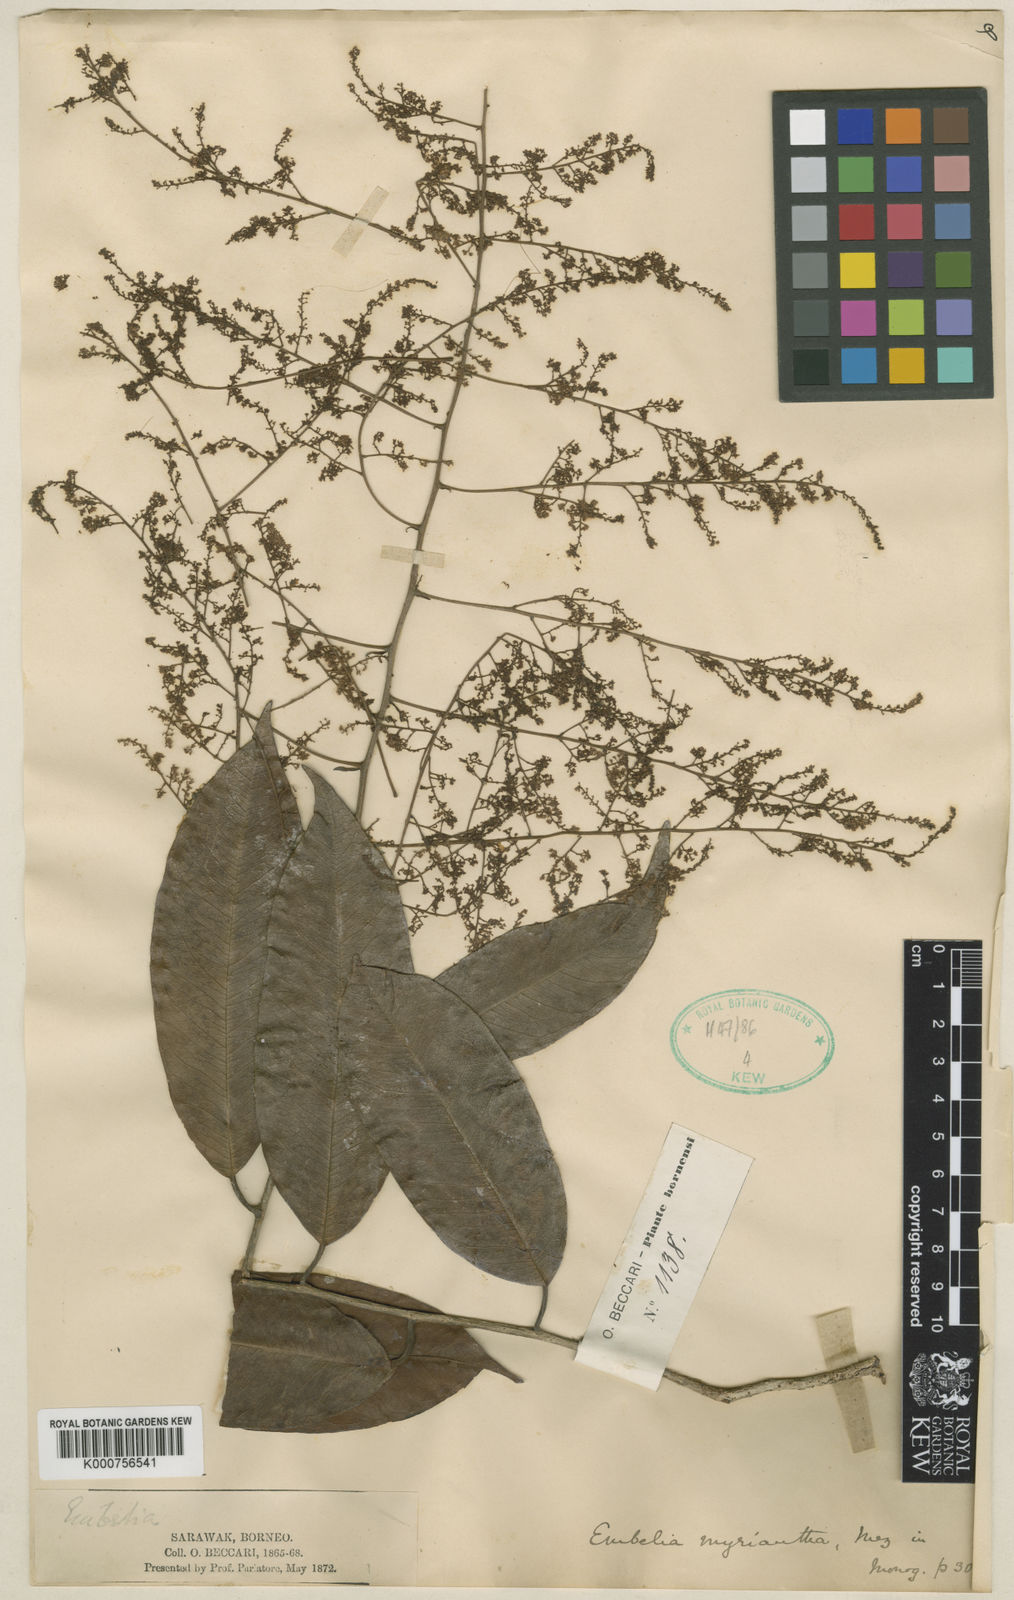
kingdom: Plantae
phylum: Tracheophyta
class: Magnoliopsida
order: Ericales
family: Primulaceae
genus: Embelia
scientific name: Embelia myriantha
